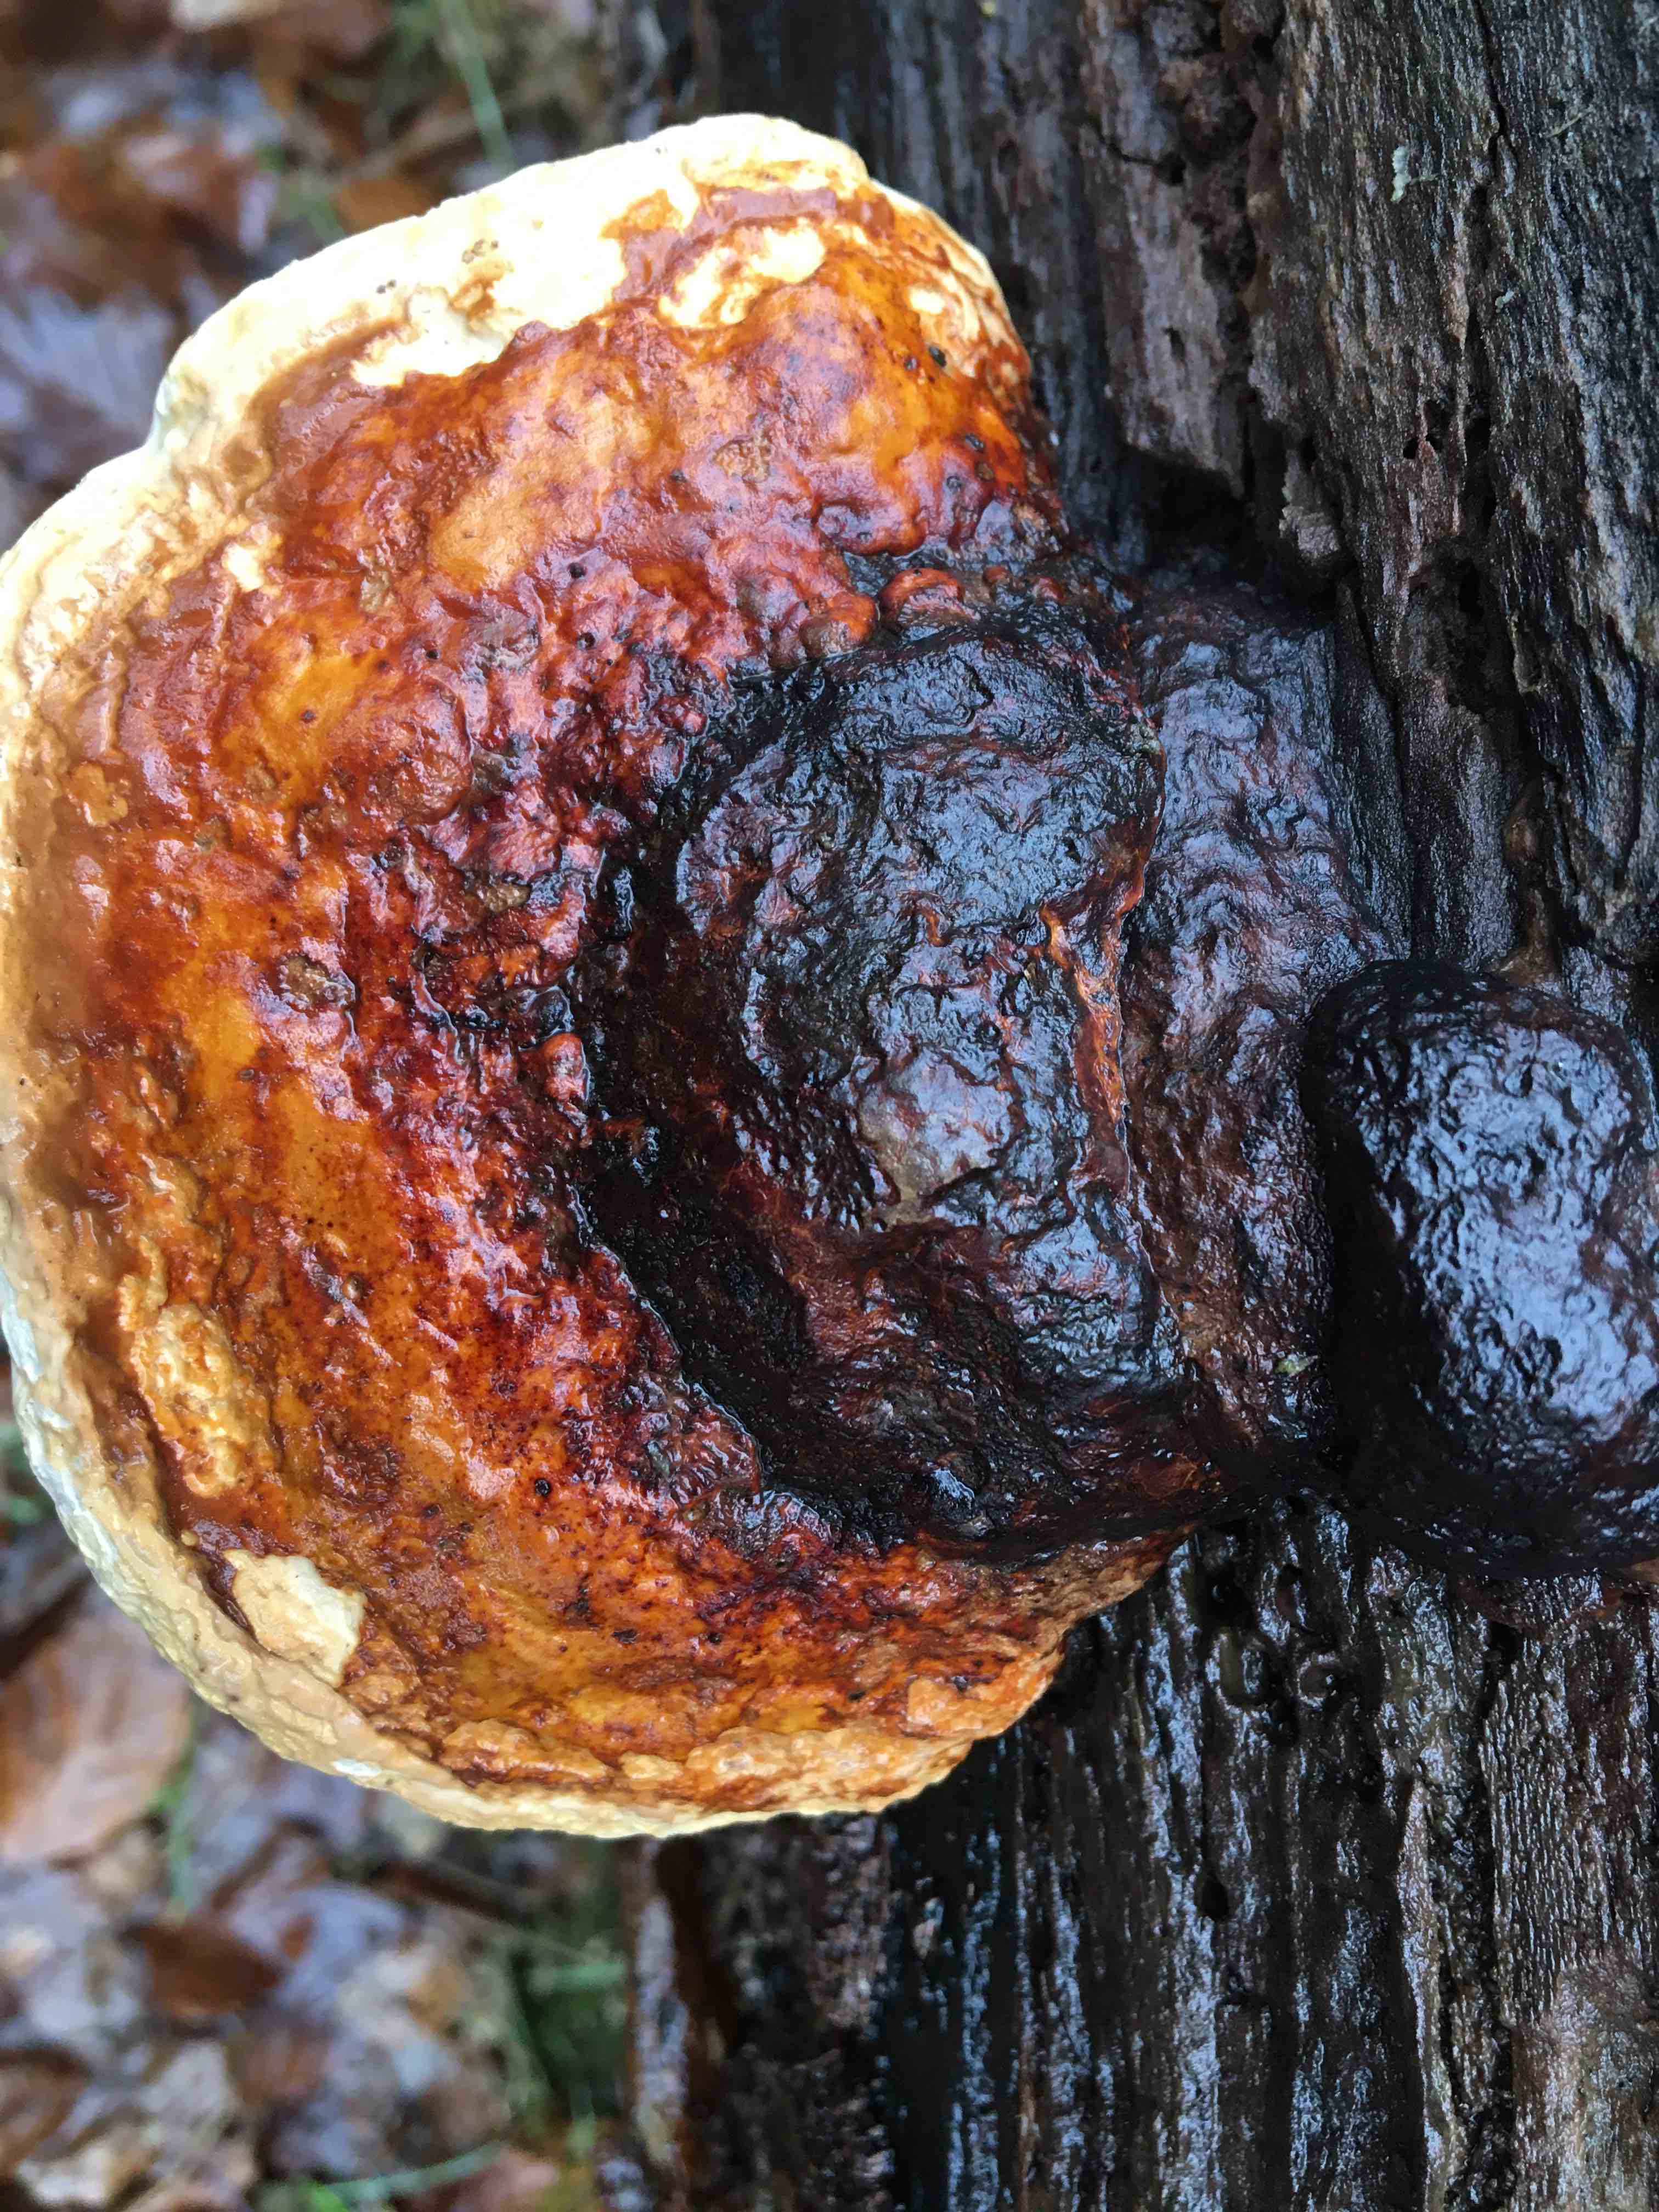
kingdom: Fungi
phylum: Basidiomycota
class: Agaricomycetes
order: Polyporales
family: Fomitopsidaceae
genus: Fomitopsis
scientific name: Fomitopsis pinicola
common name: randbæltet hovporesvamp
